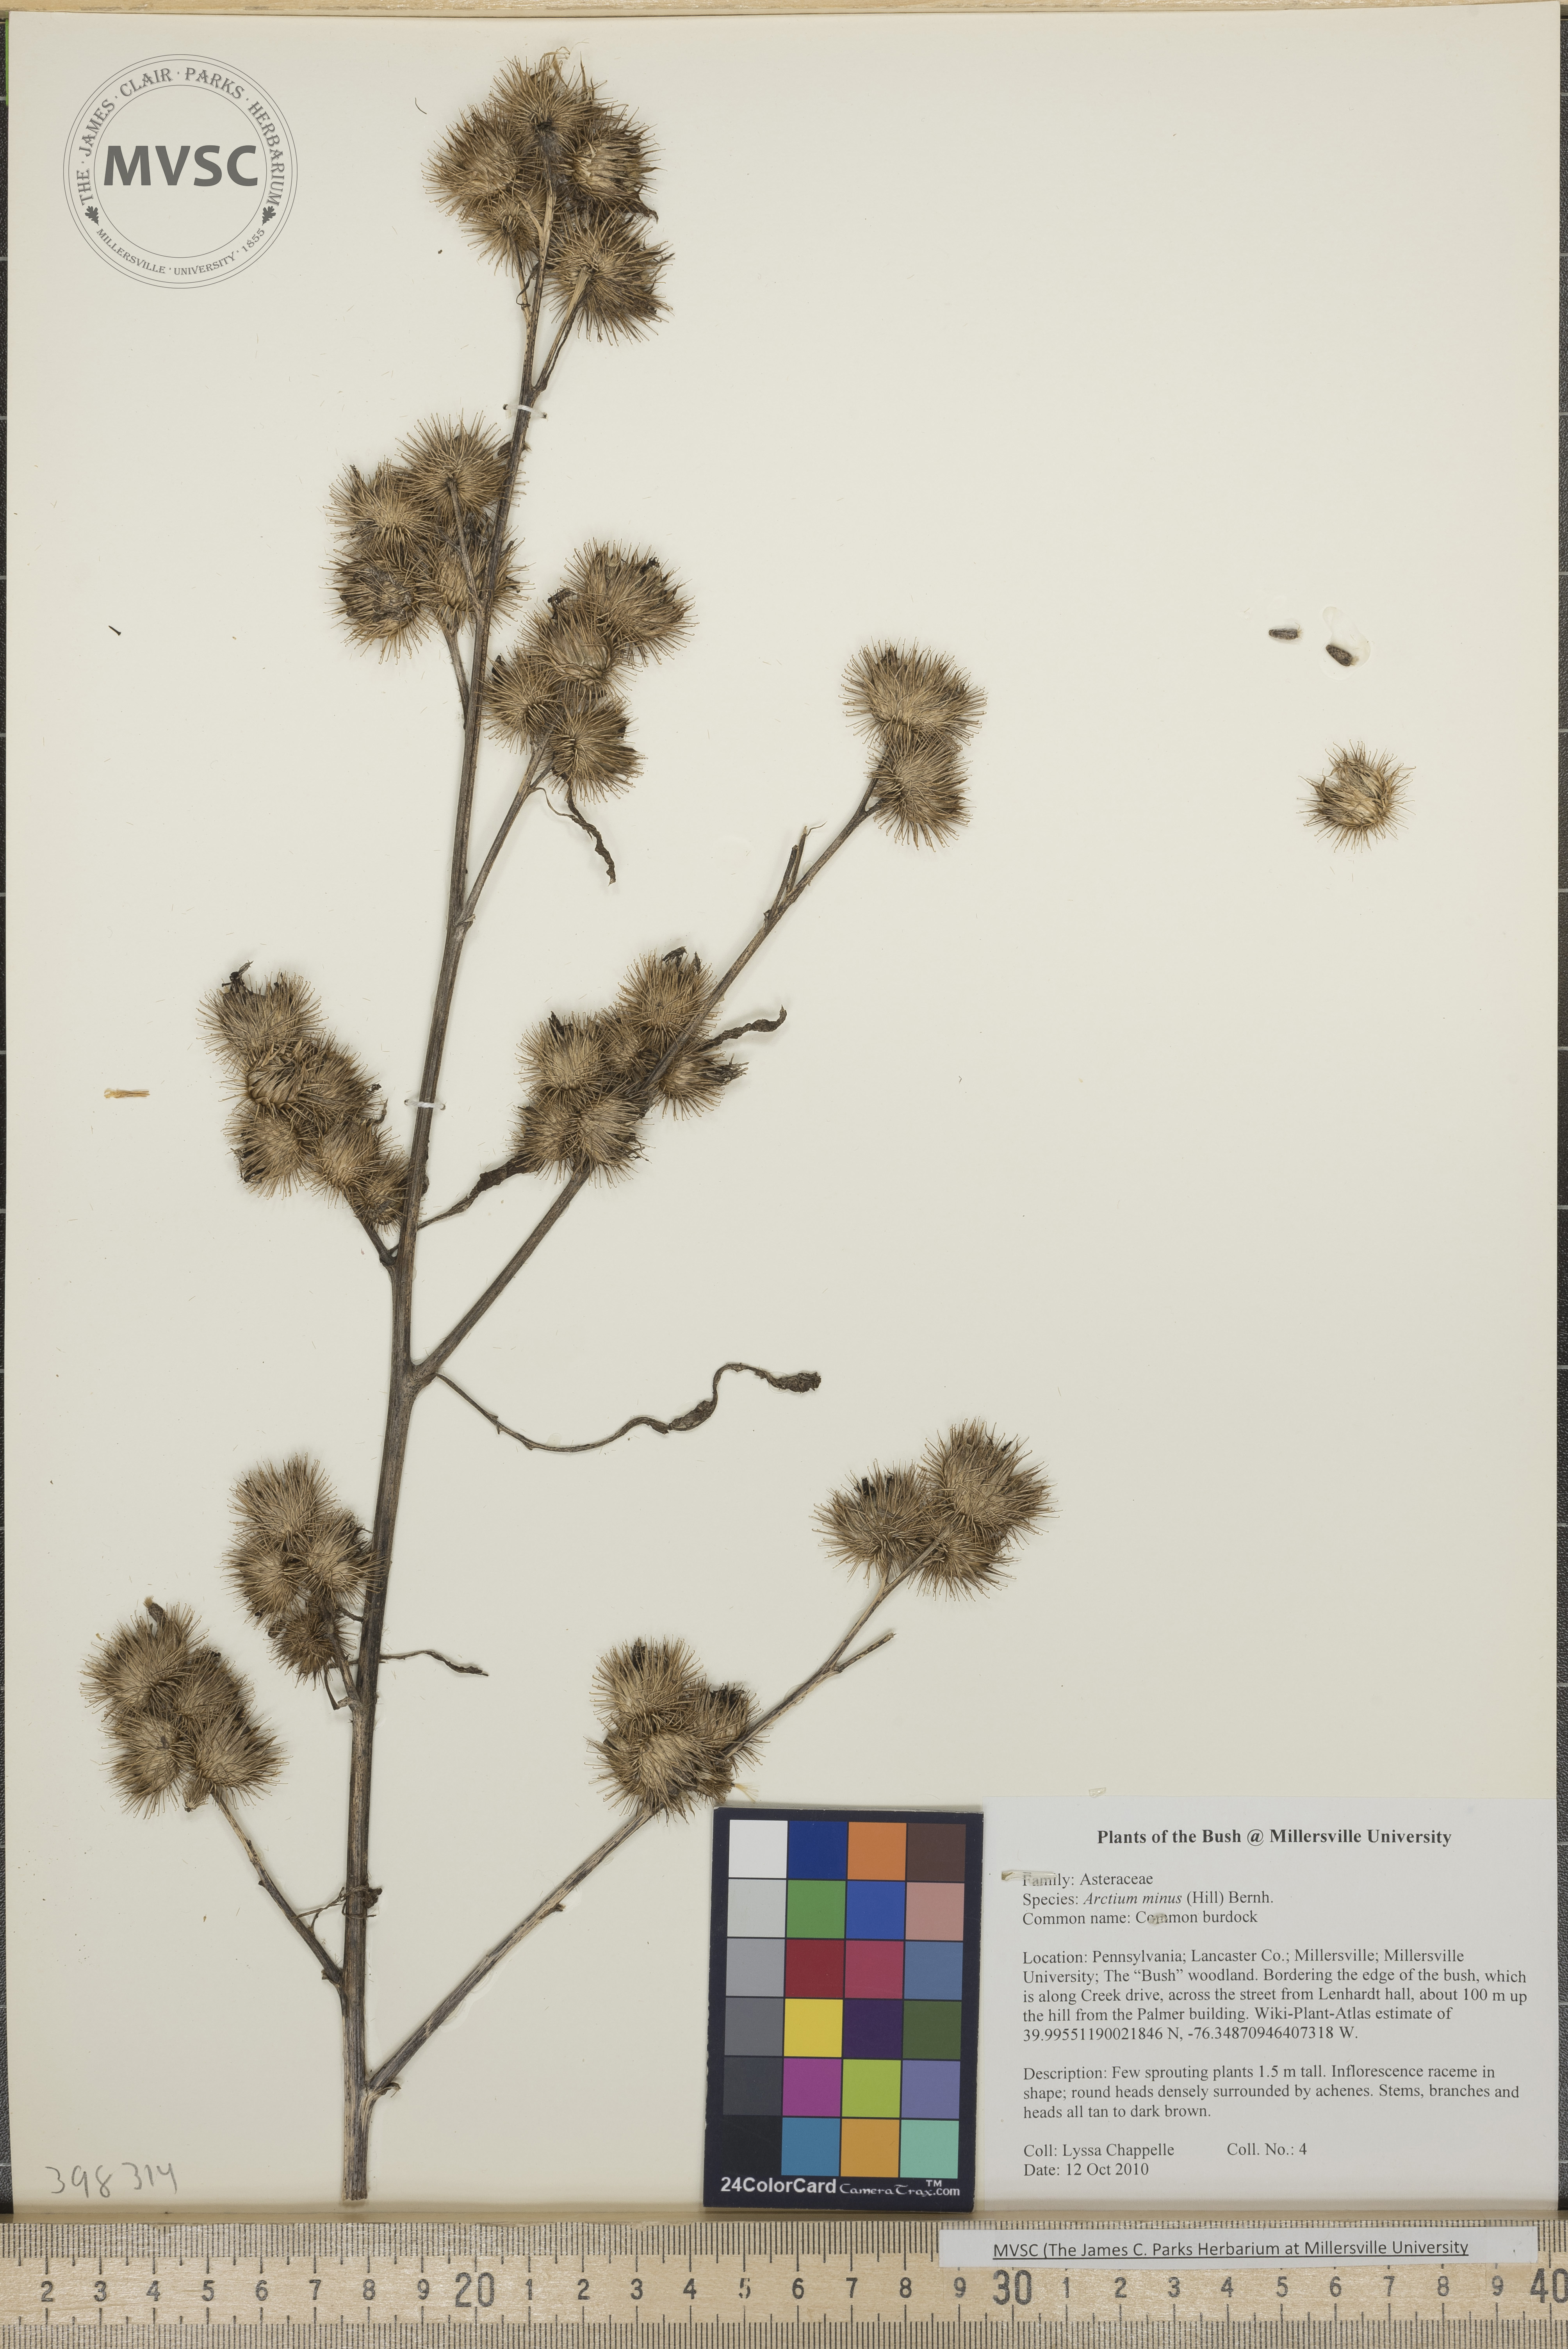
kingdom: Plantae
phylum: Tracheophyta
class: Magnoliopsida
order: Asterales
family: Asteraceae
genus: Arctium
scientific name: Arctium minus
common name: Common burdock
